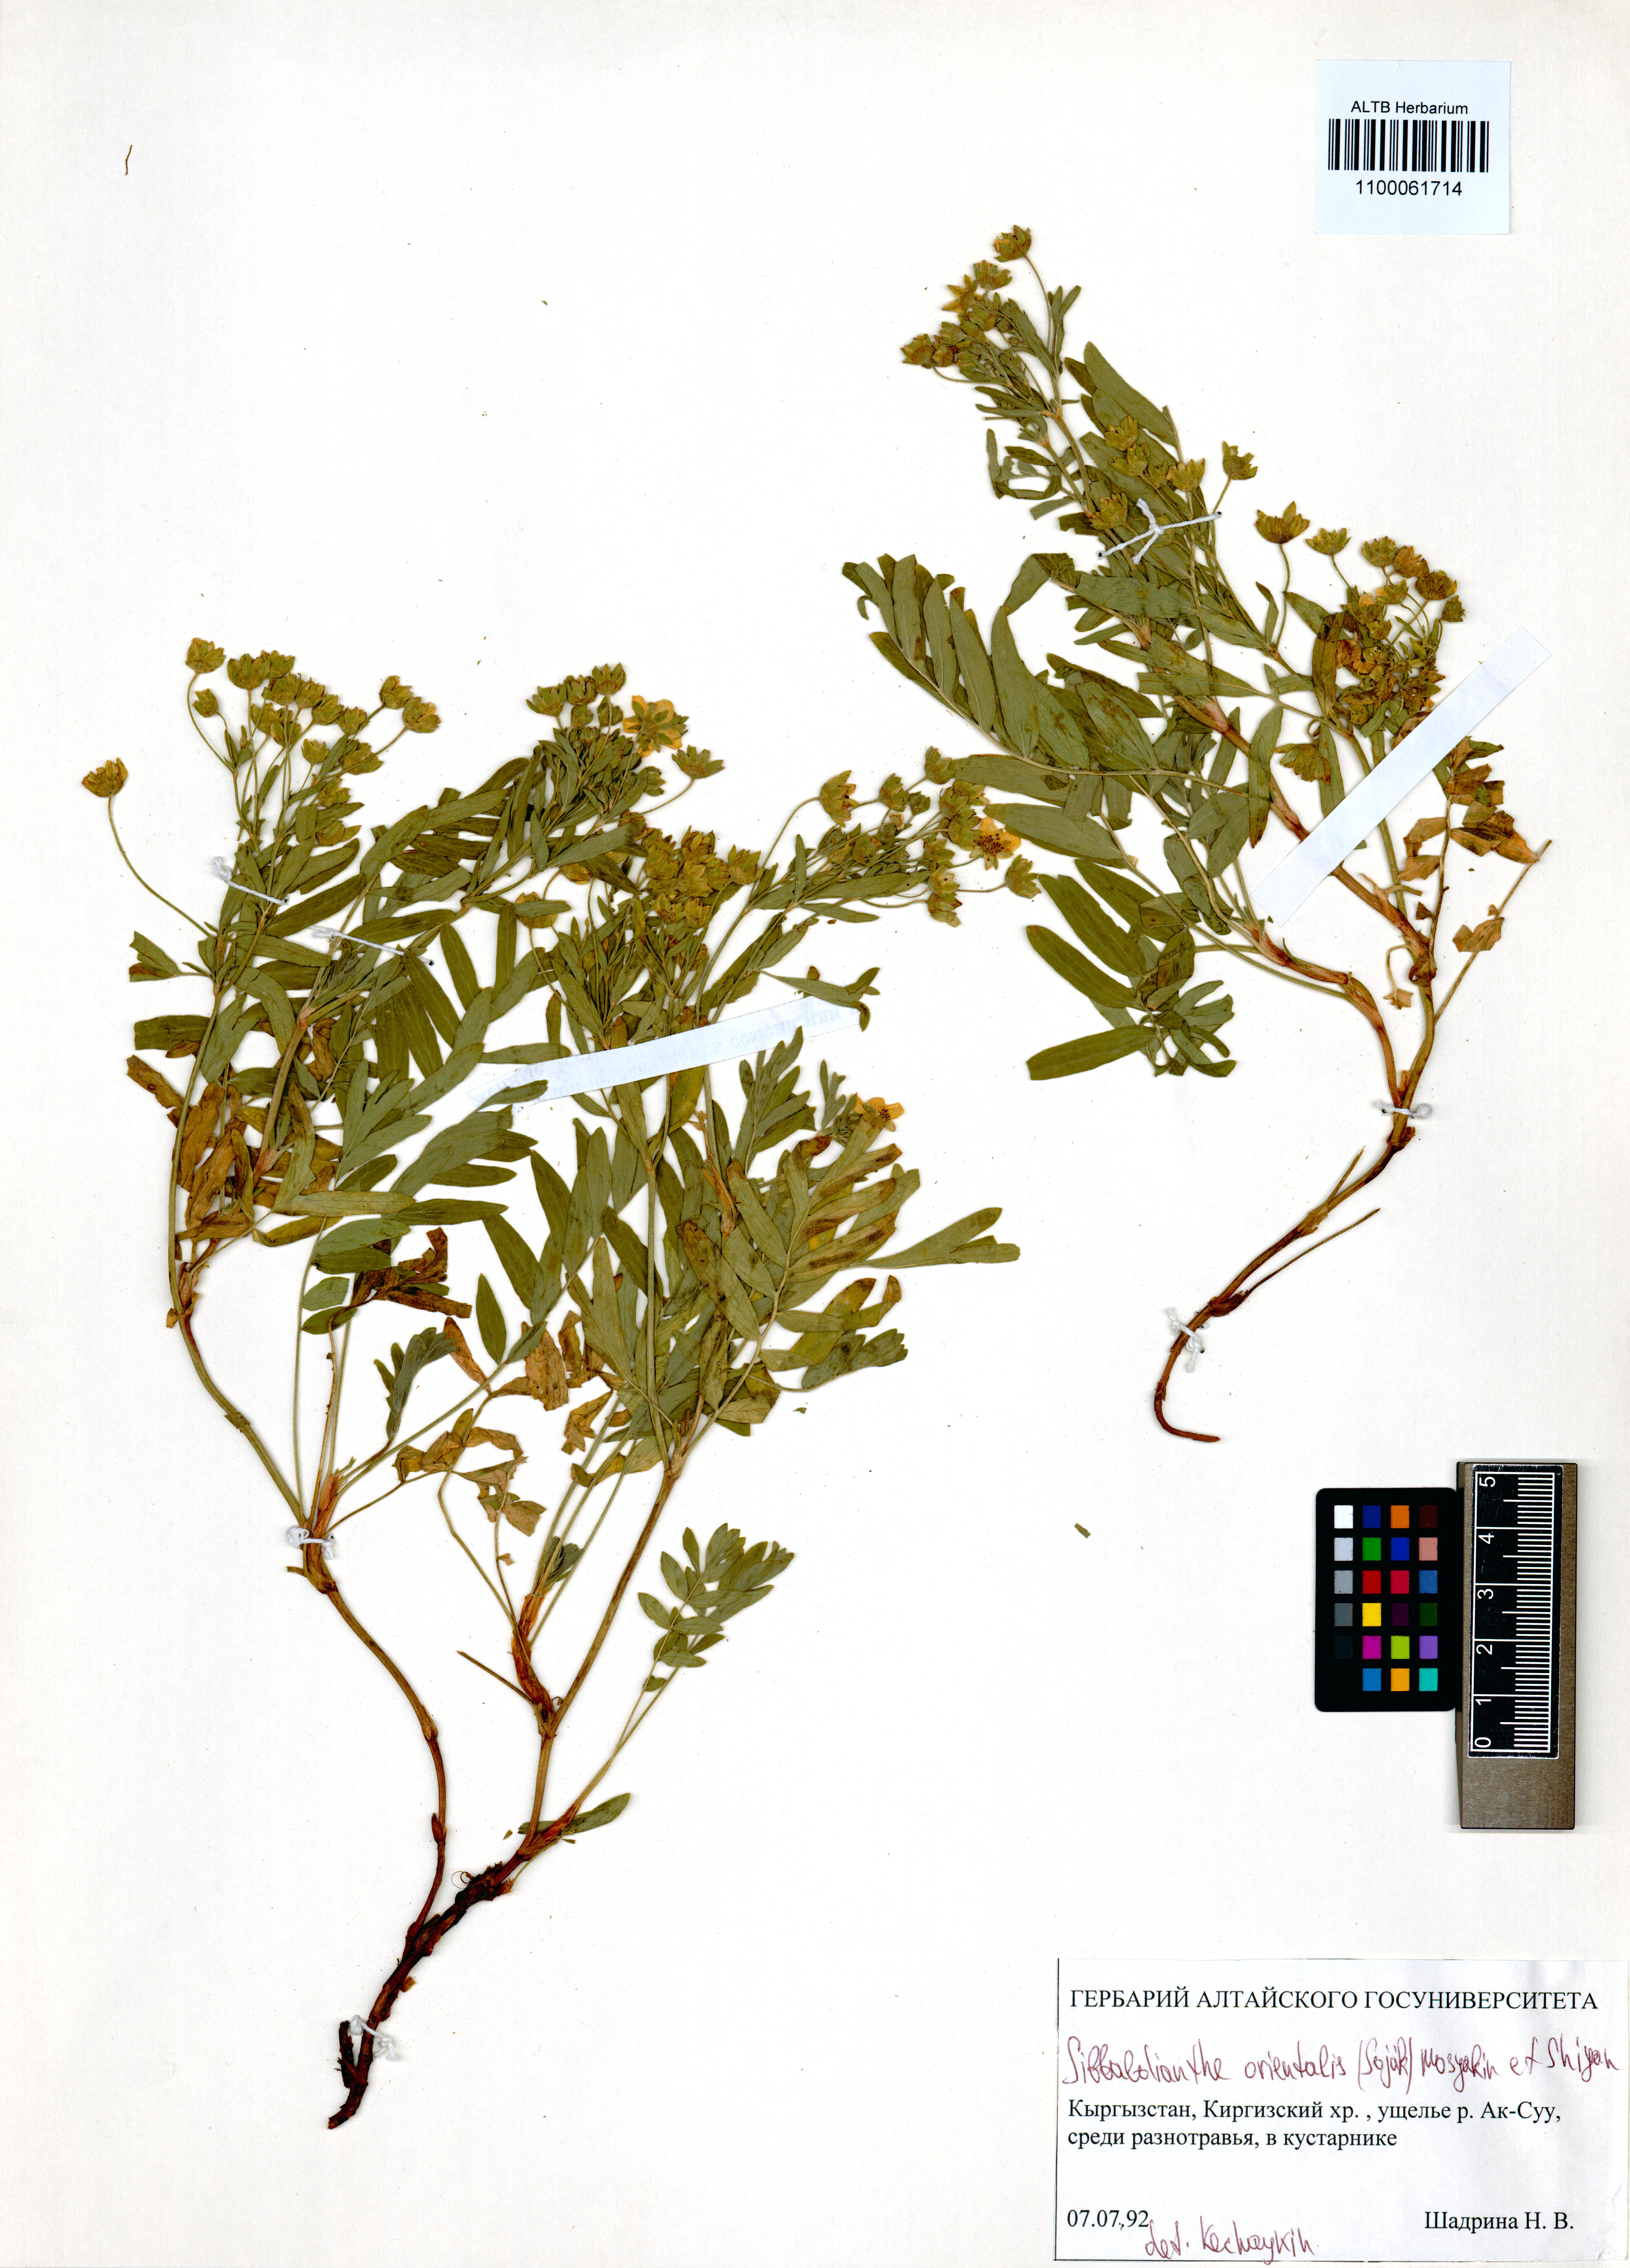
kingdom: Plantae
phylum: Tracheophyta
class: Magnoliopsida
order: Rosales
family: Rosaceae
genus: Sibbaldianthe
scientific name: Sibbaldianthe orientalis
